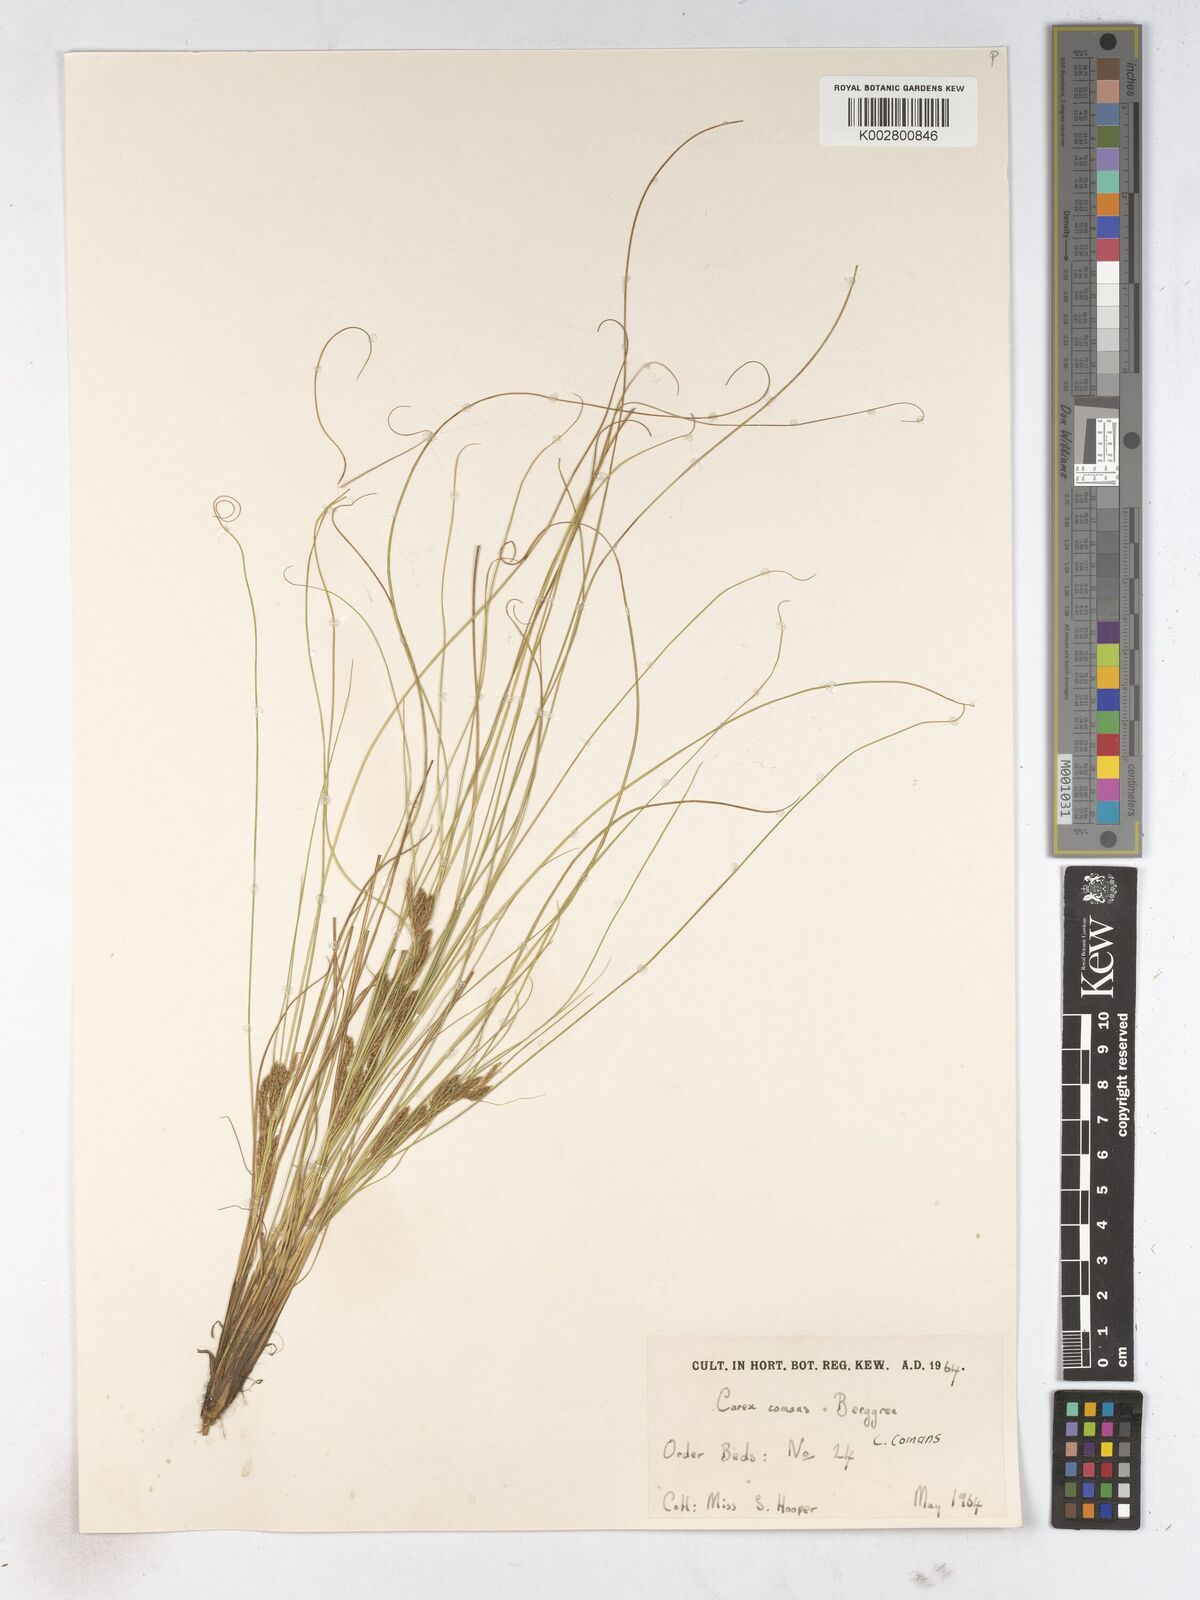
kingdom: Plantae
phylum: Tracheophyta
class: Liliopsida
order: Poales
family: Cyperaceae
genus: Carex
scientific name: Carex comans
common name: Longwood tussock
